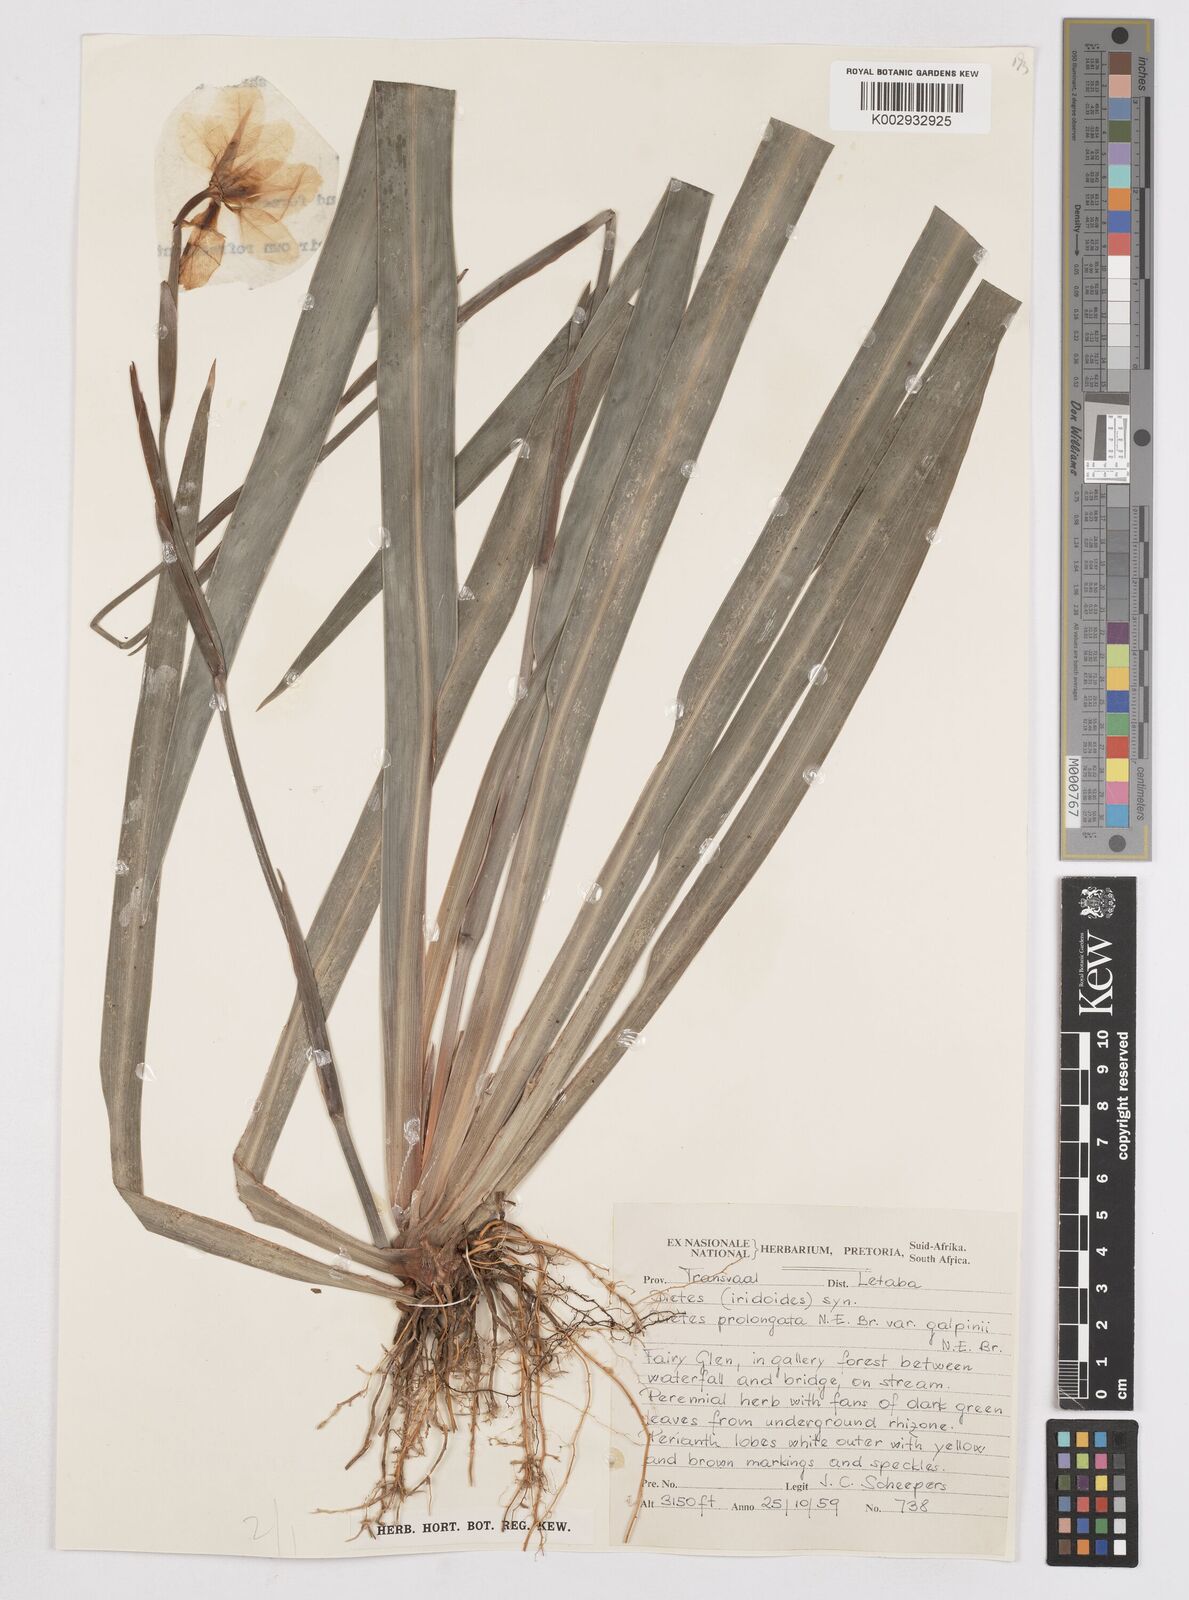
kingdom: Plantae
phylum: Tracheophyta
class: Liliopsida
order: Asparagales
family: Iridaceae
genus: Dietes
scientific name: Dietes iridioides
